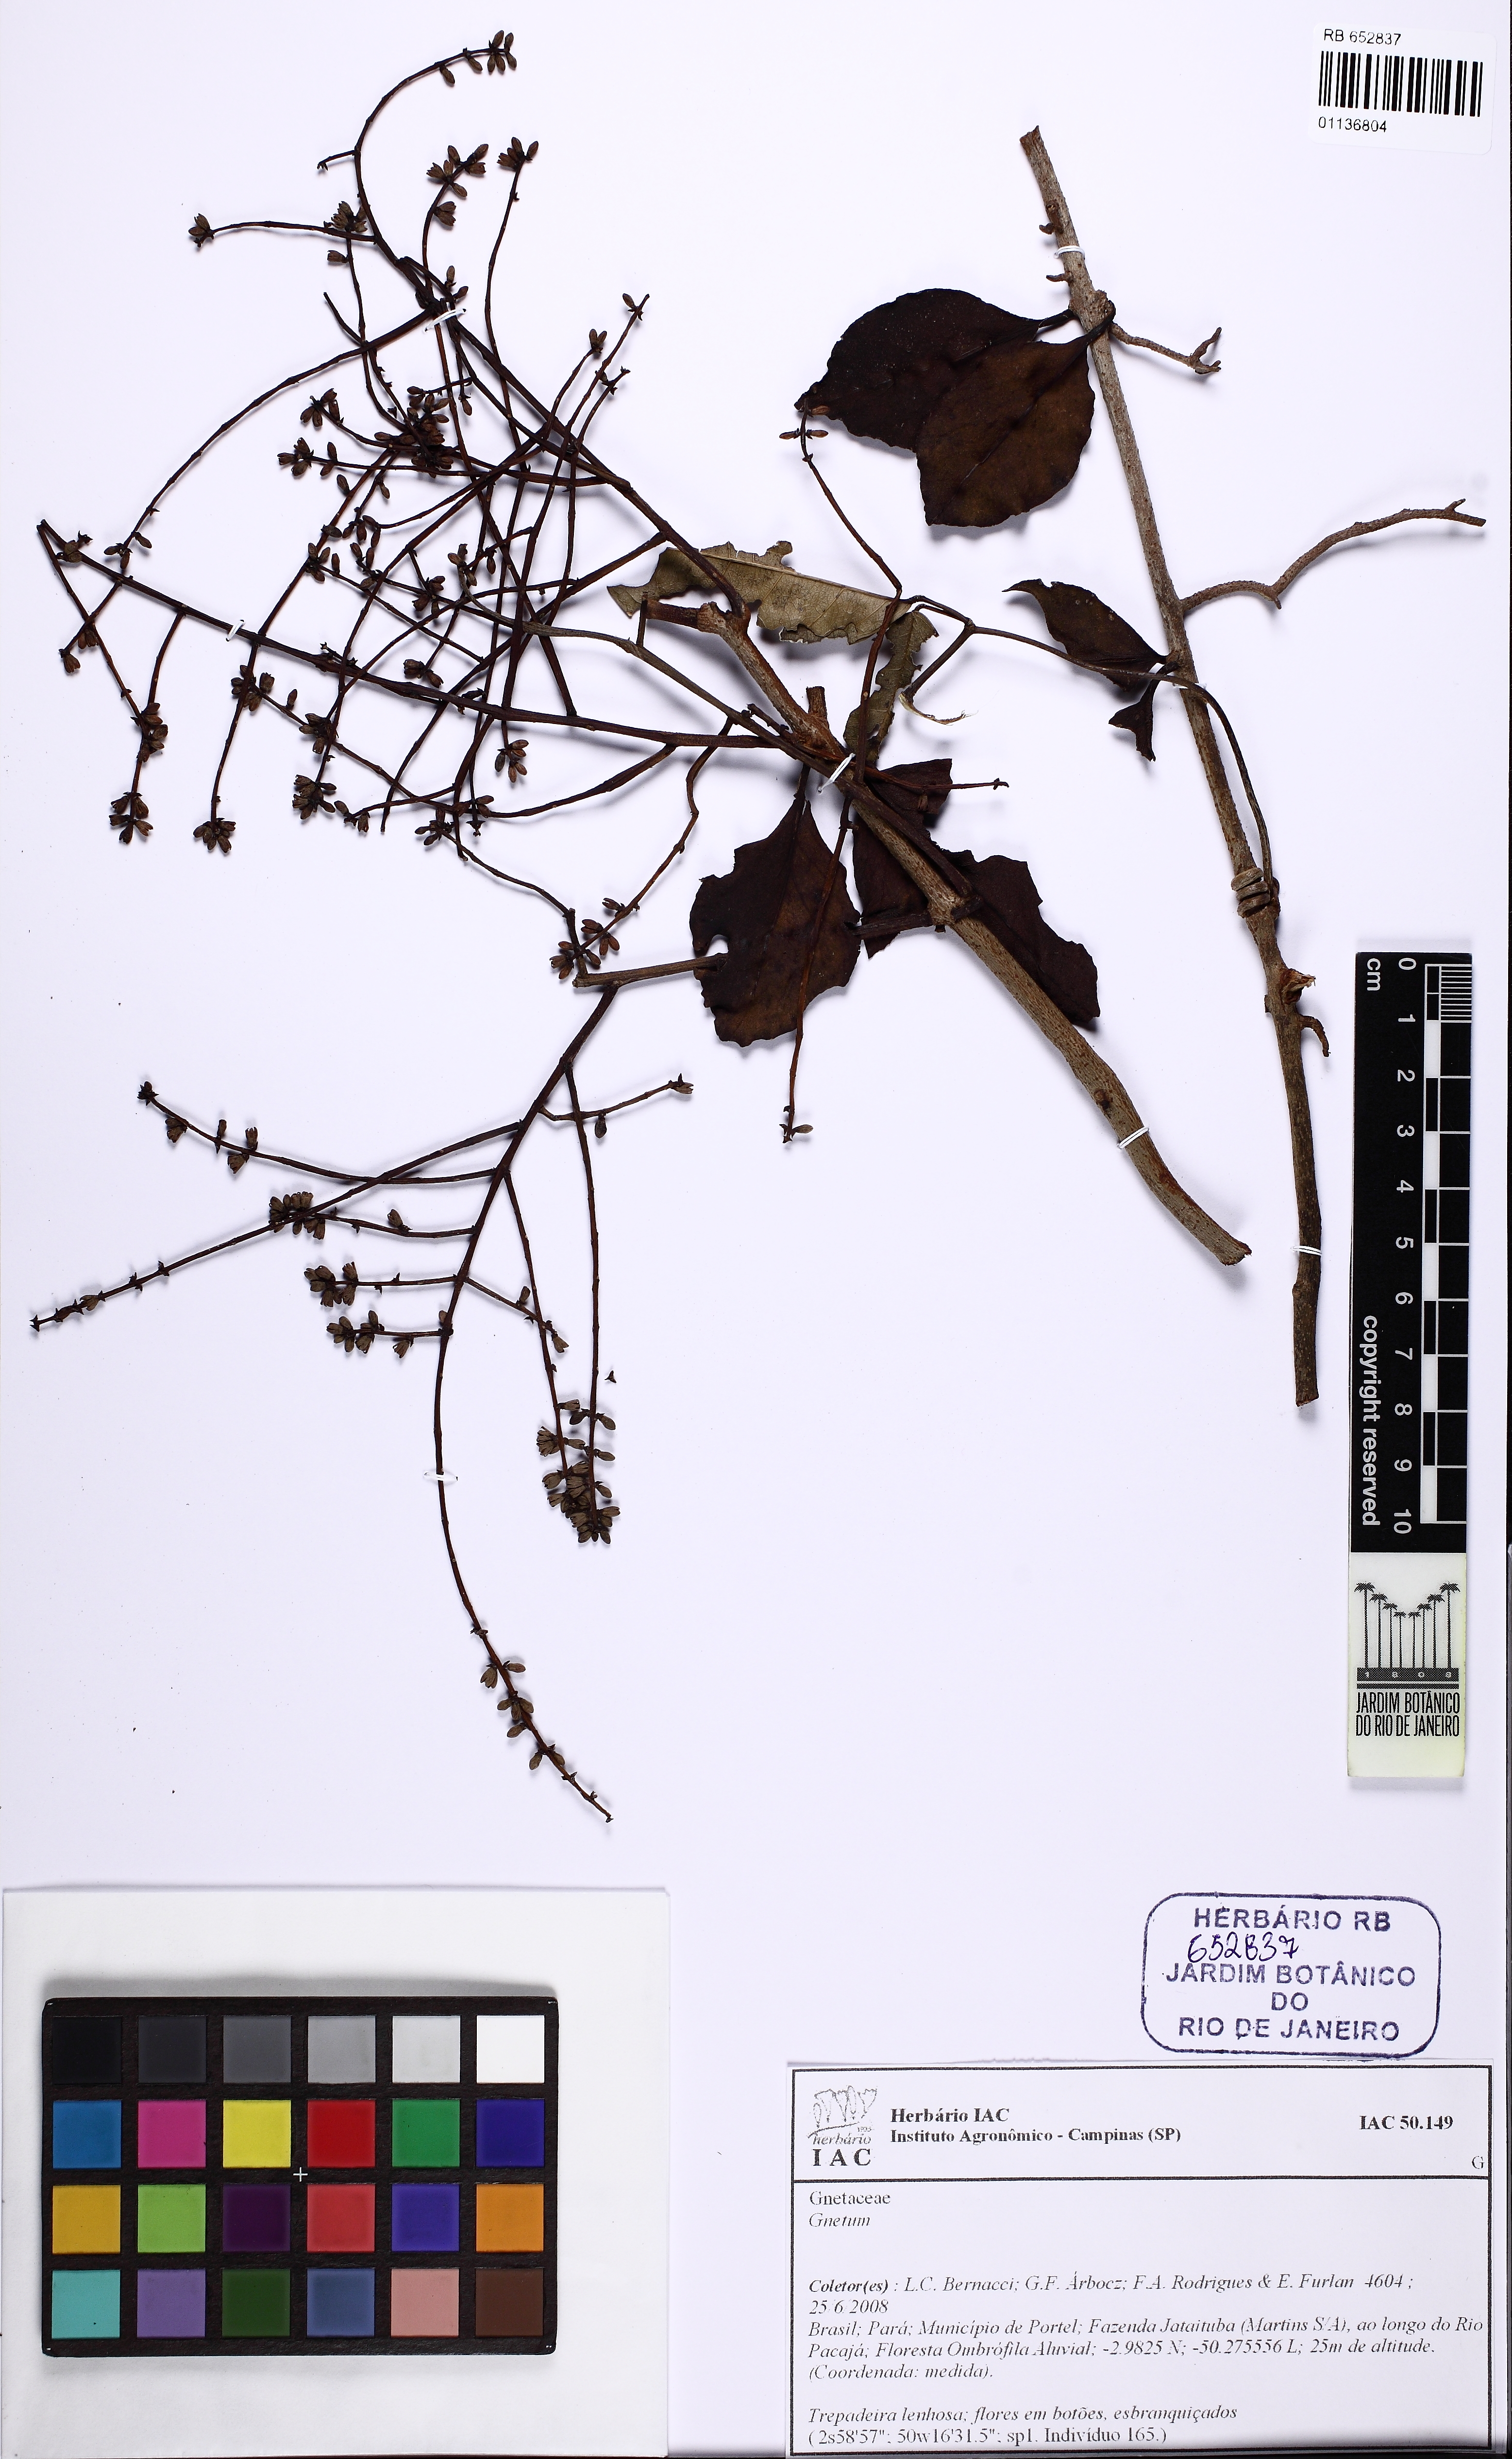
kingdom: Plantae
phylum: Tracheophyta
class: Gnetopsida
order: Gnetales
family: Gnetaceae
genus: Gnetum
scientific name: Gnetum
